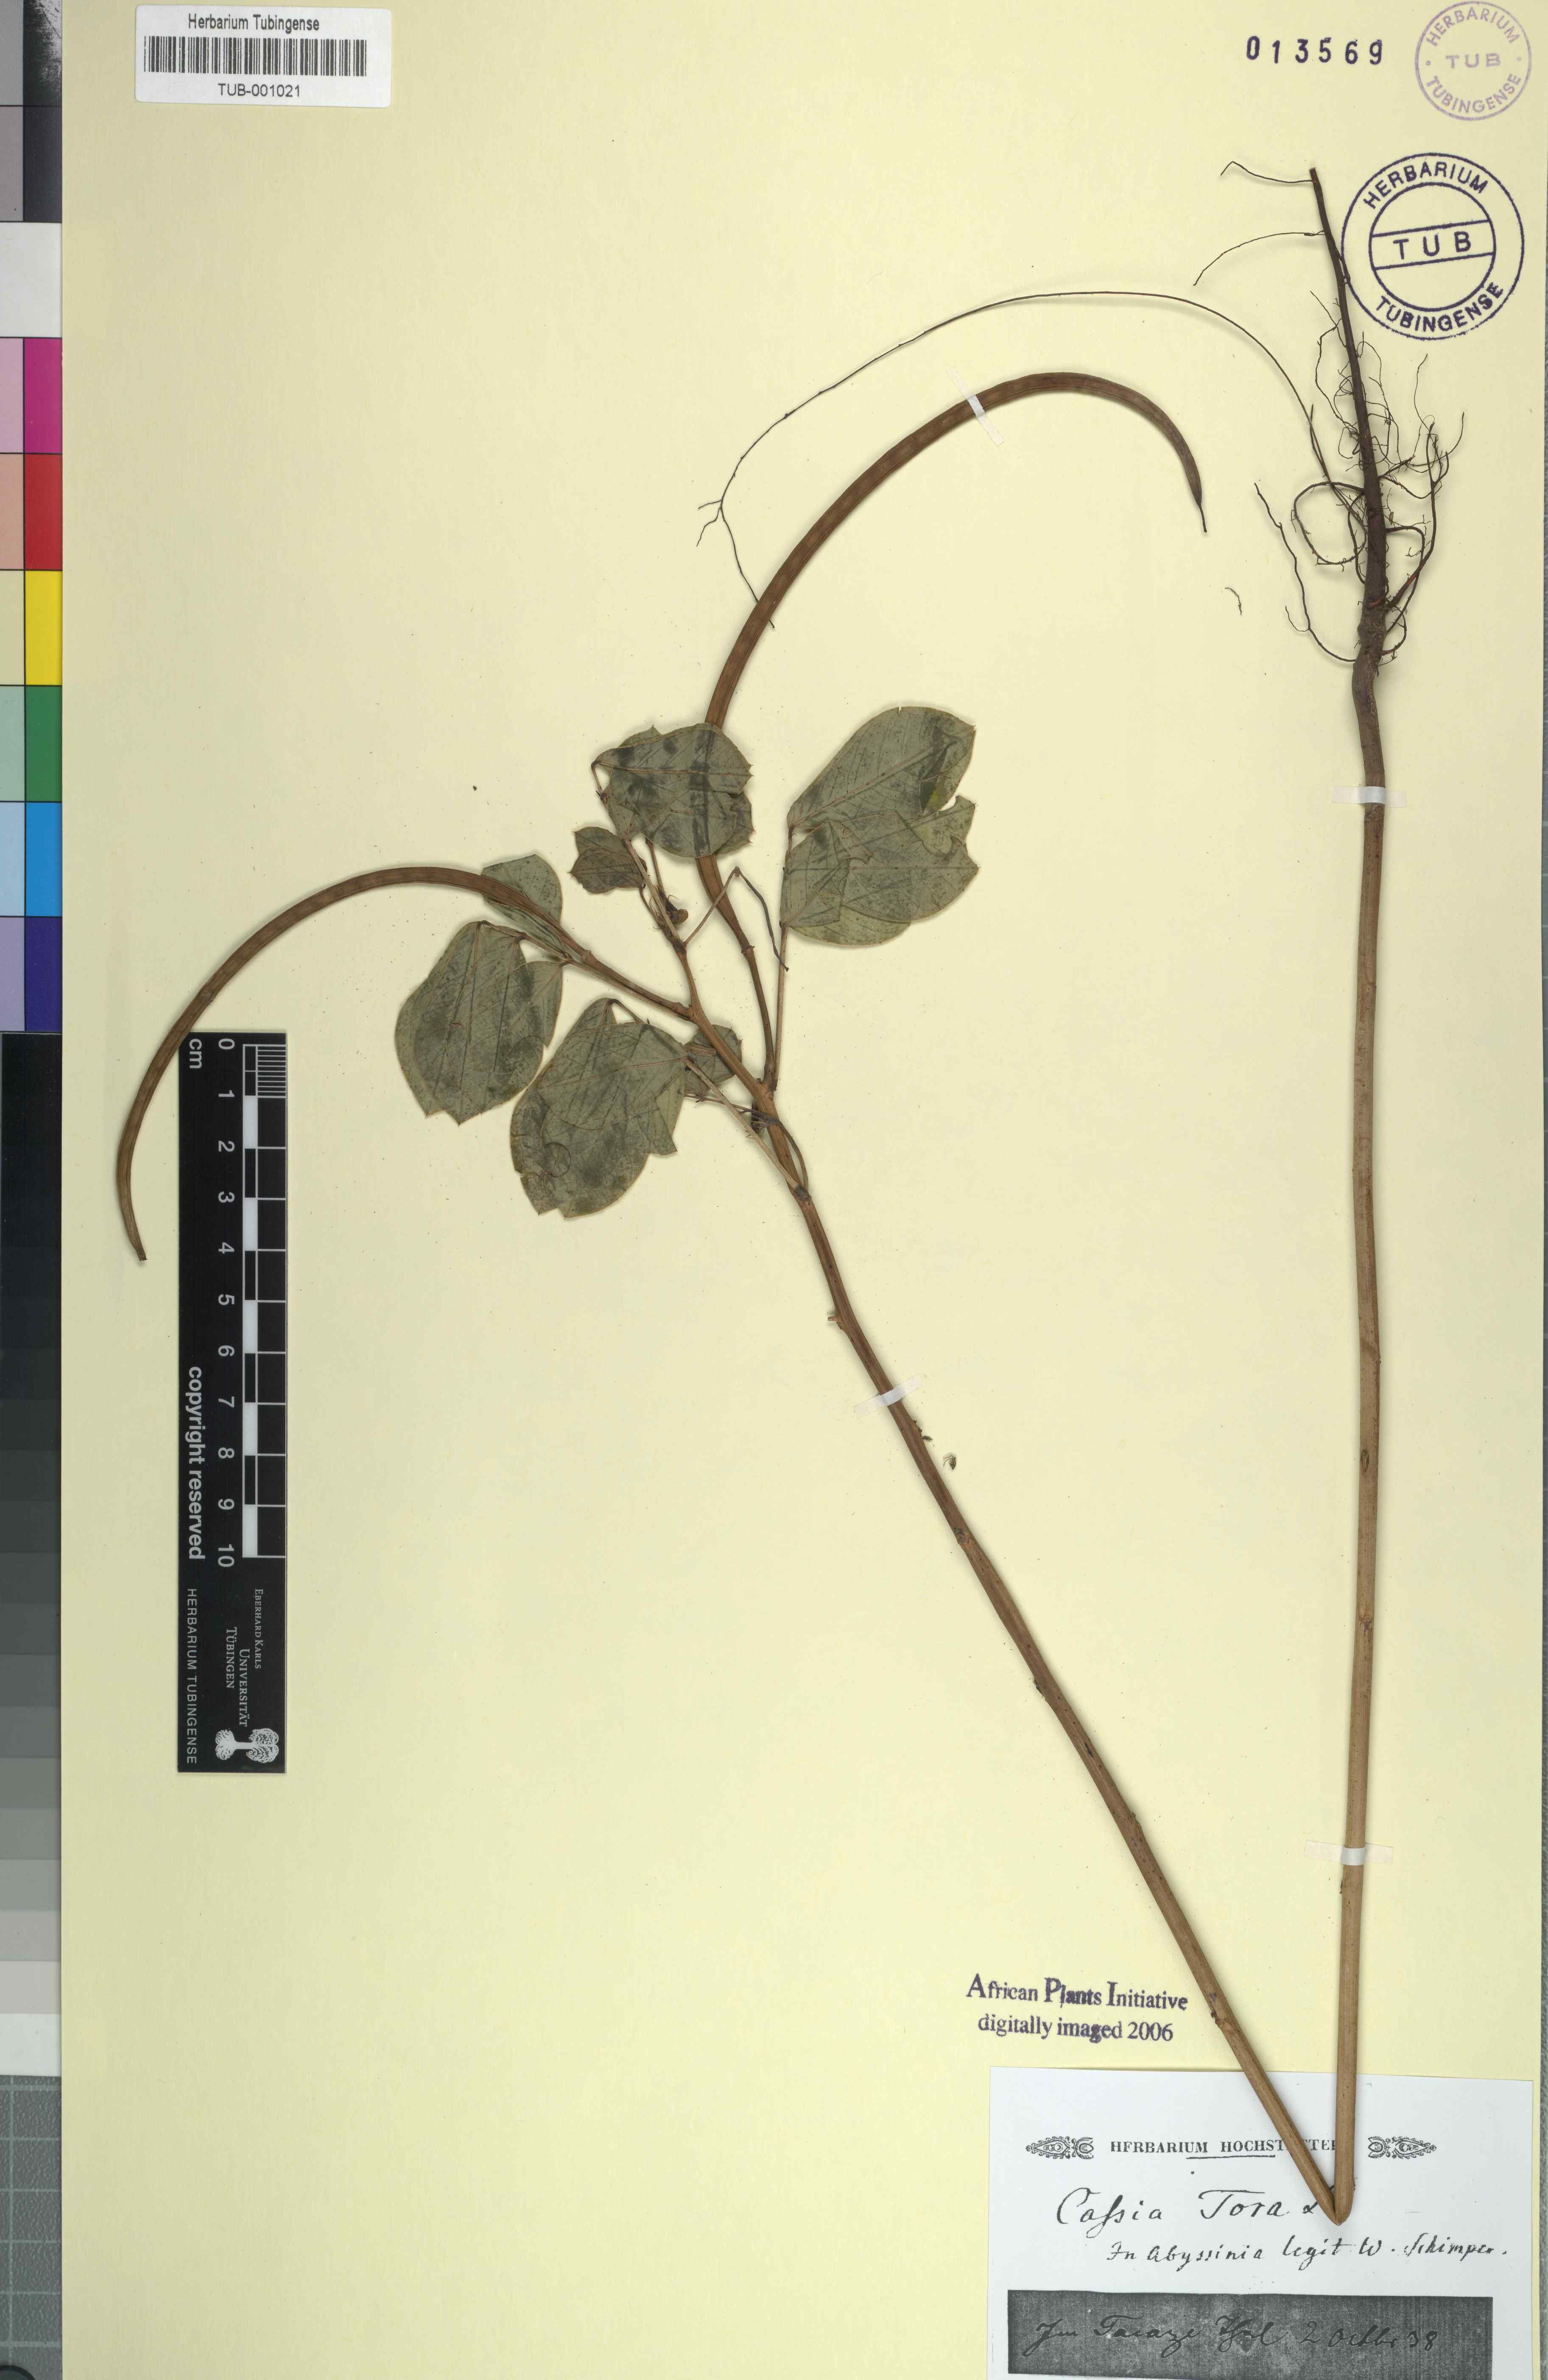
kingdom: Plantae
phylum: Tracheophyta
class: Magnoliopsida
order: Fabales
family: Fabaceae
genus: Senna
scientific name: Senna tora
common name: Sickle senna
